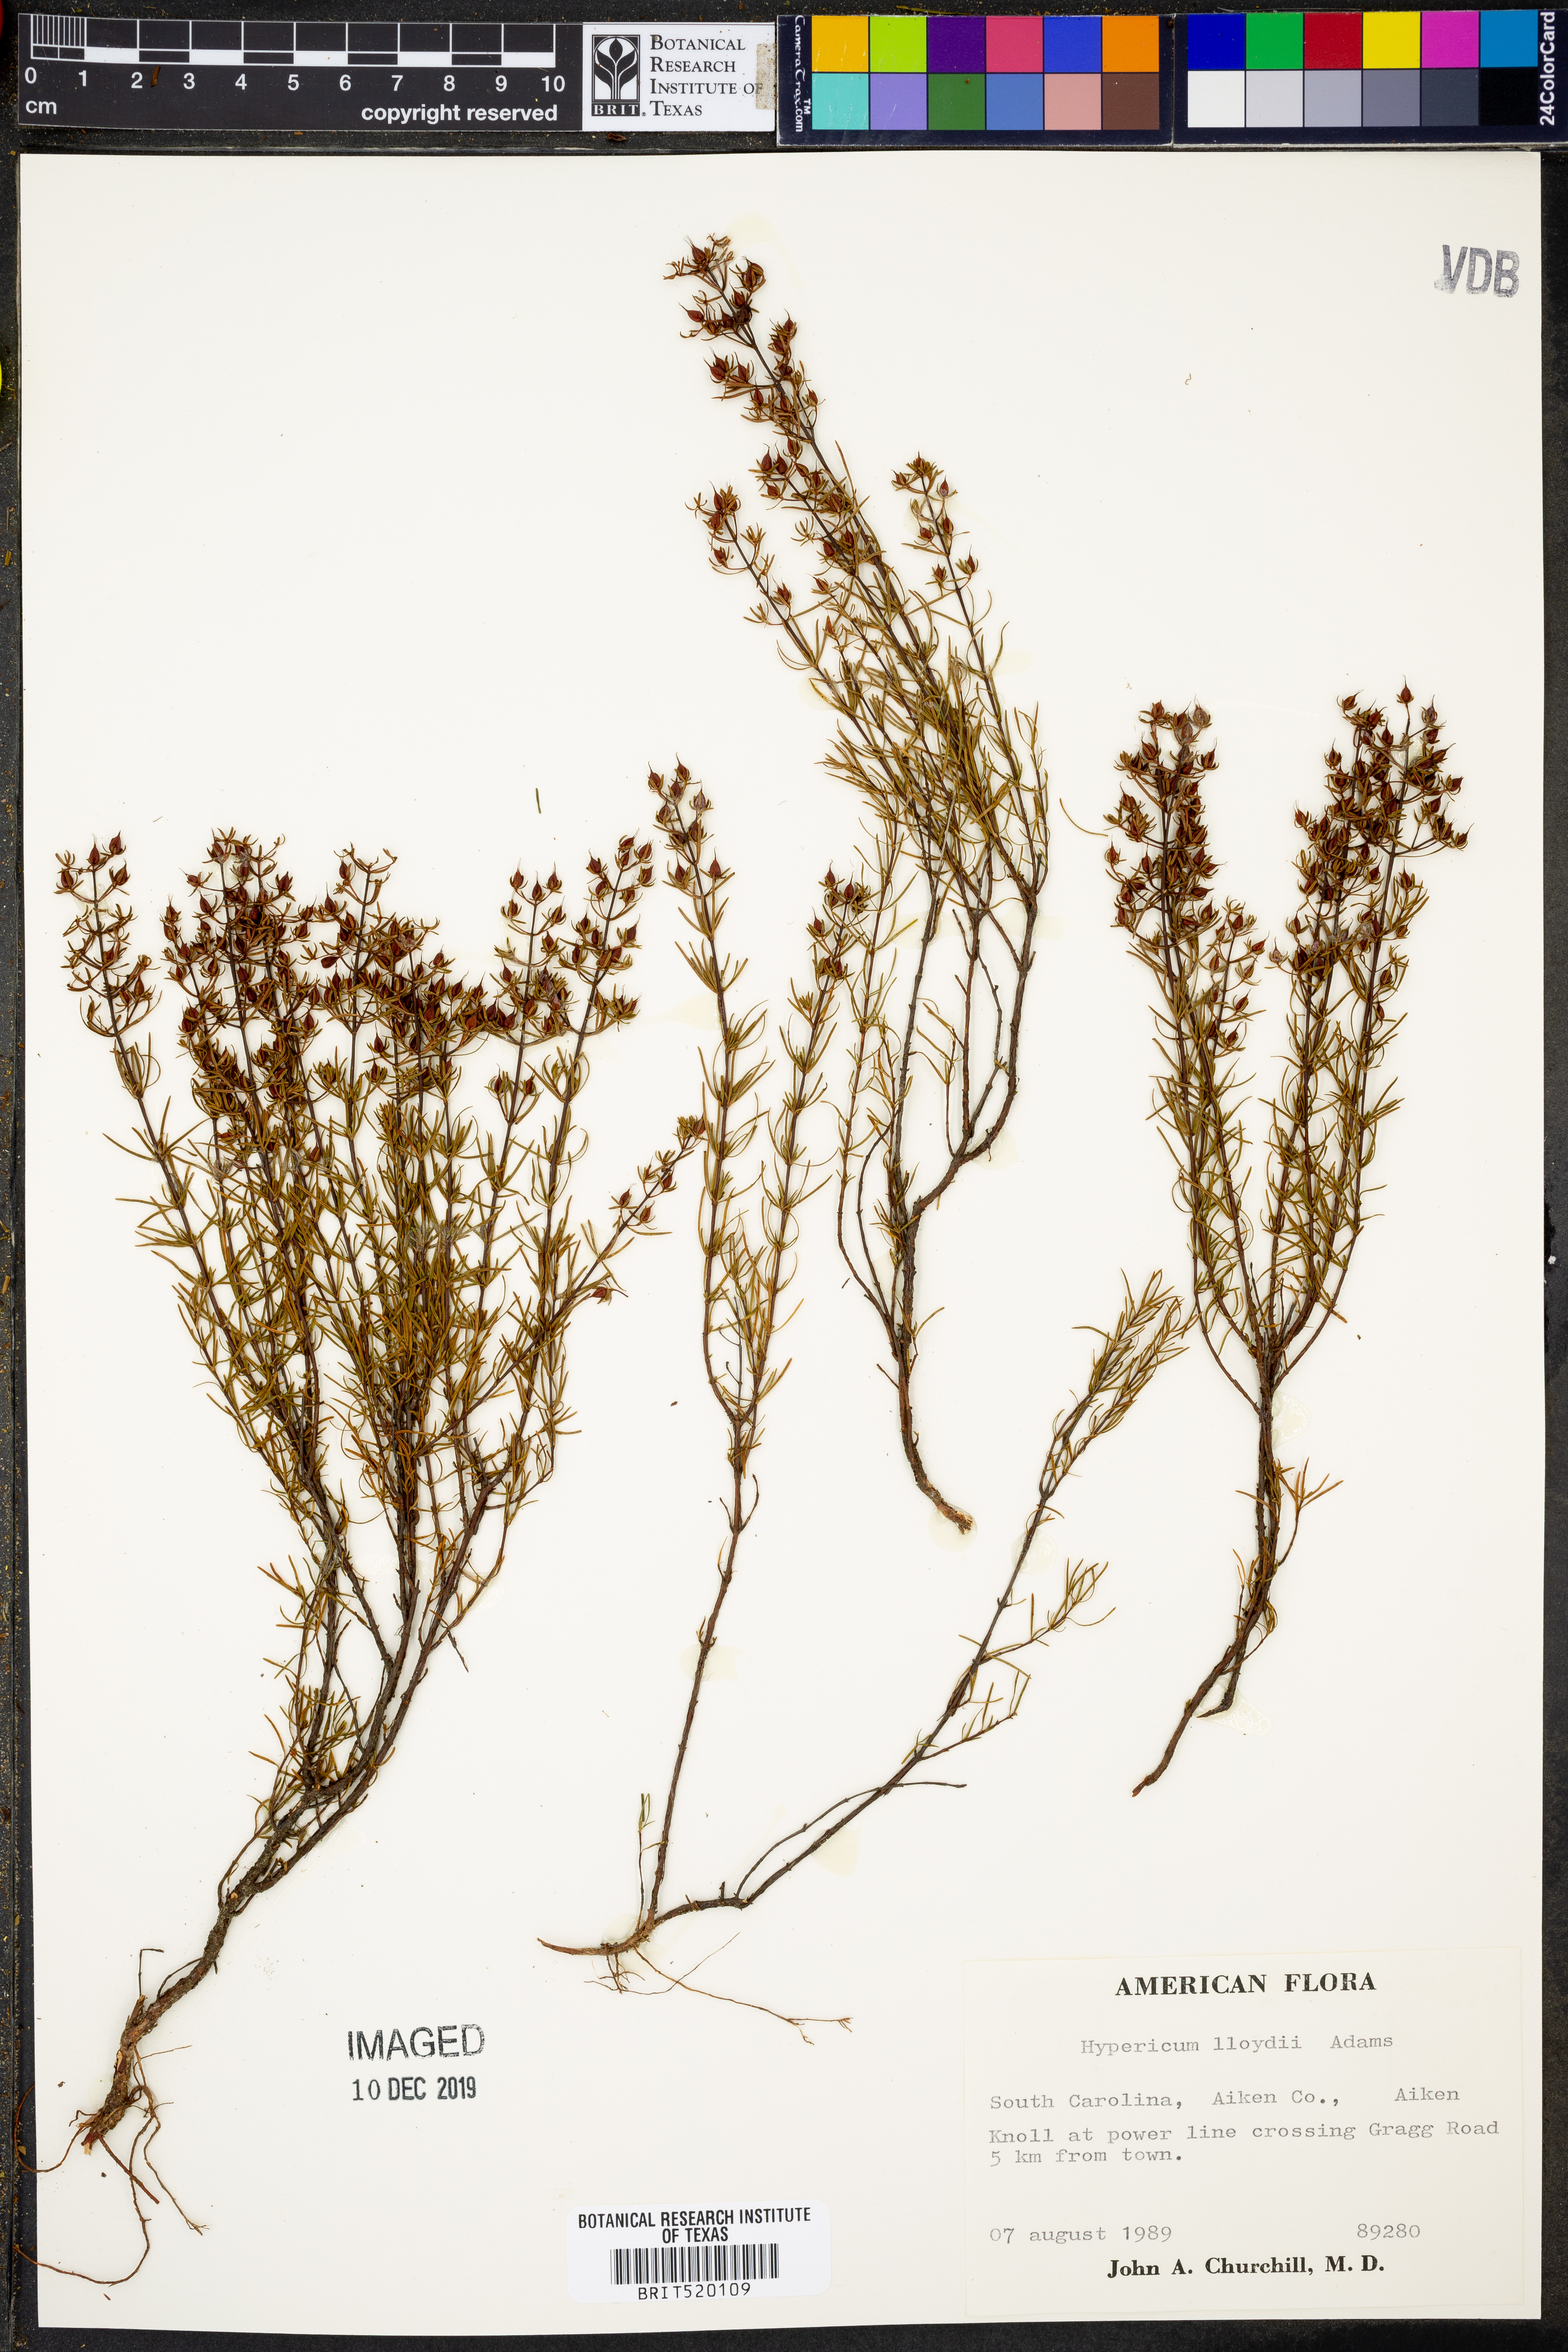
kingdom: Plantae
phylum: Tracheophyta
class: Magnoliopsida
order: Malpighiales
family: Hypericaceae
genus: Hypericum
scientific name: Hypericum lloydii
